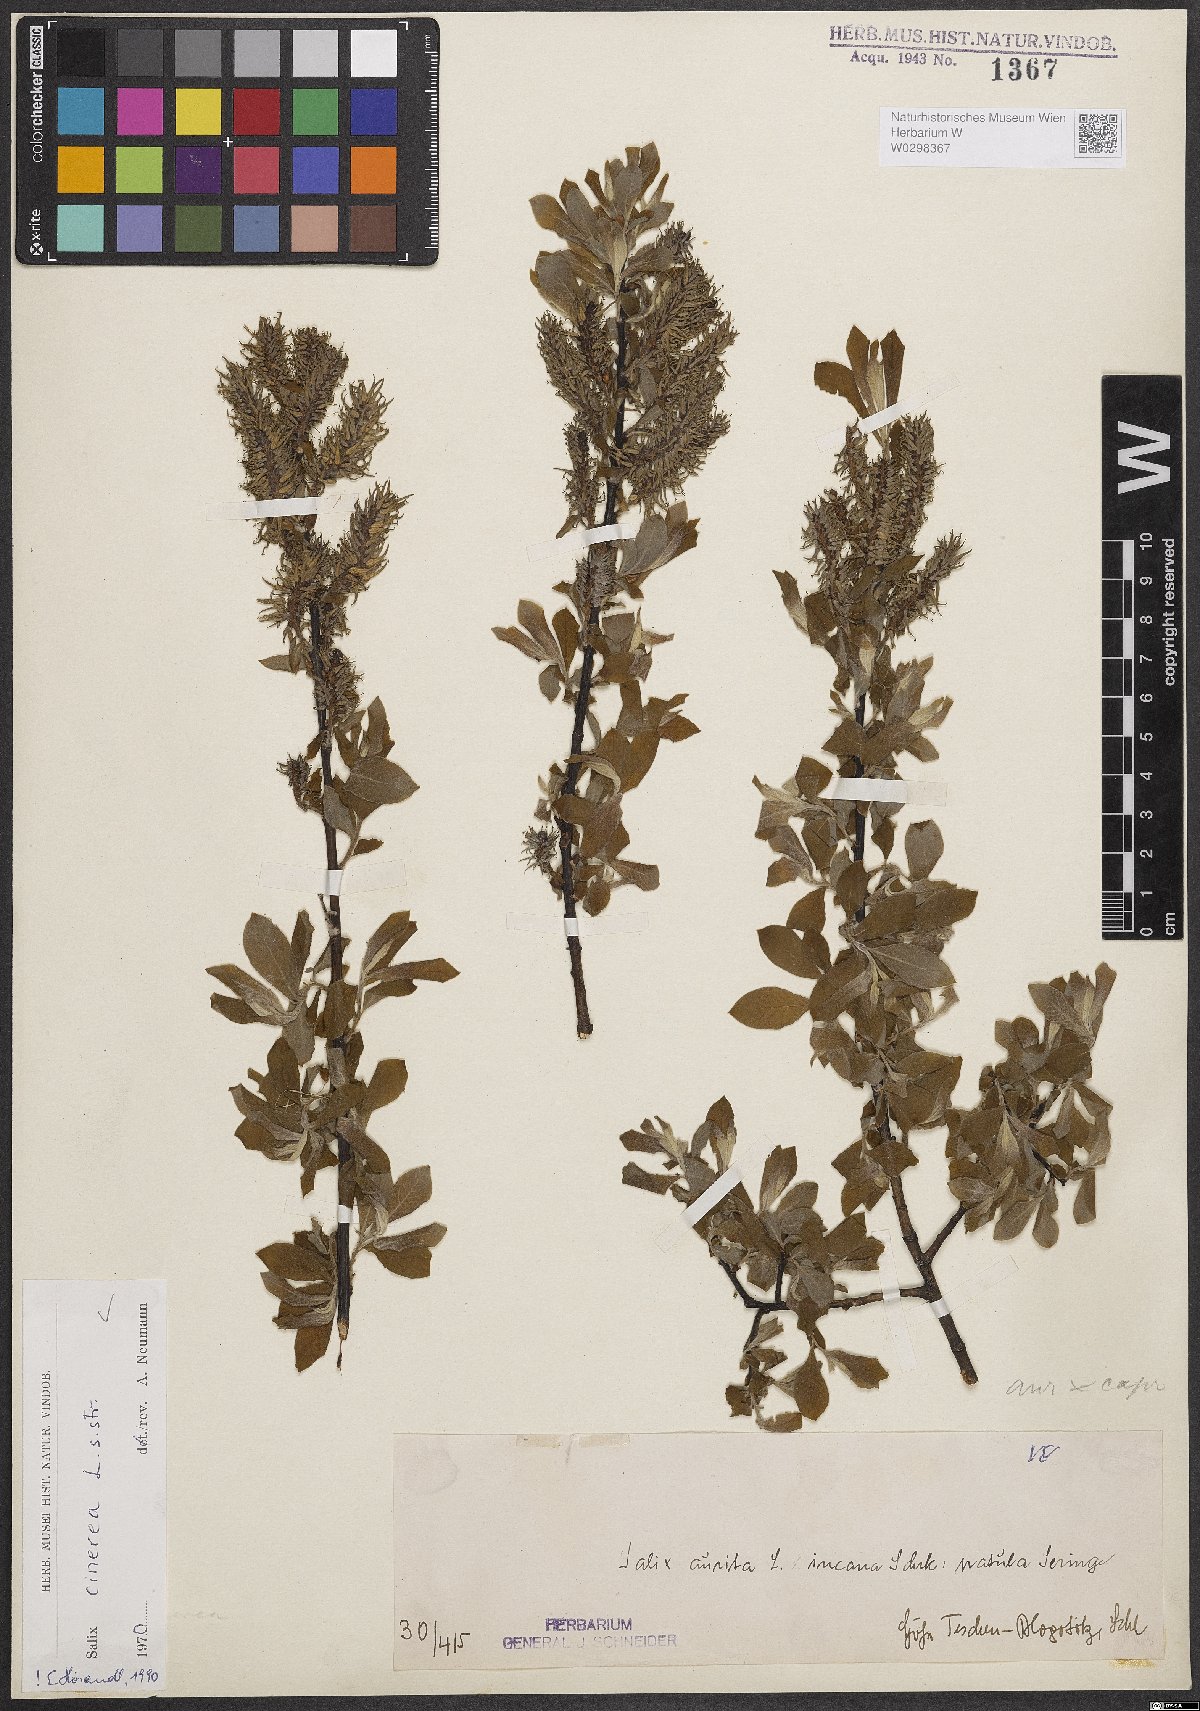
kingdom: Plantae
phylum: Tracheophyta
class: Magnoliopsida
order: Malpighiales
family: Salicaceae
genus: Salix
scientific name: Salix cinerea
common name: Common sallow
